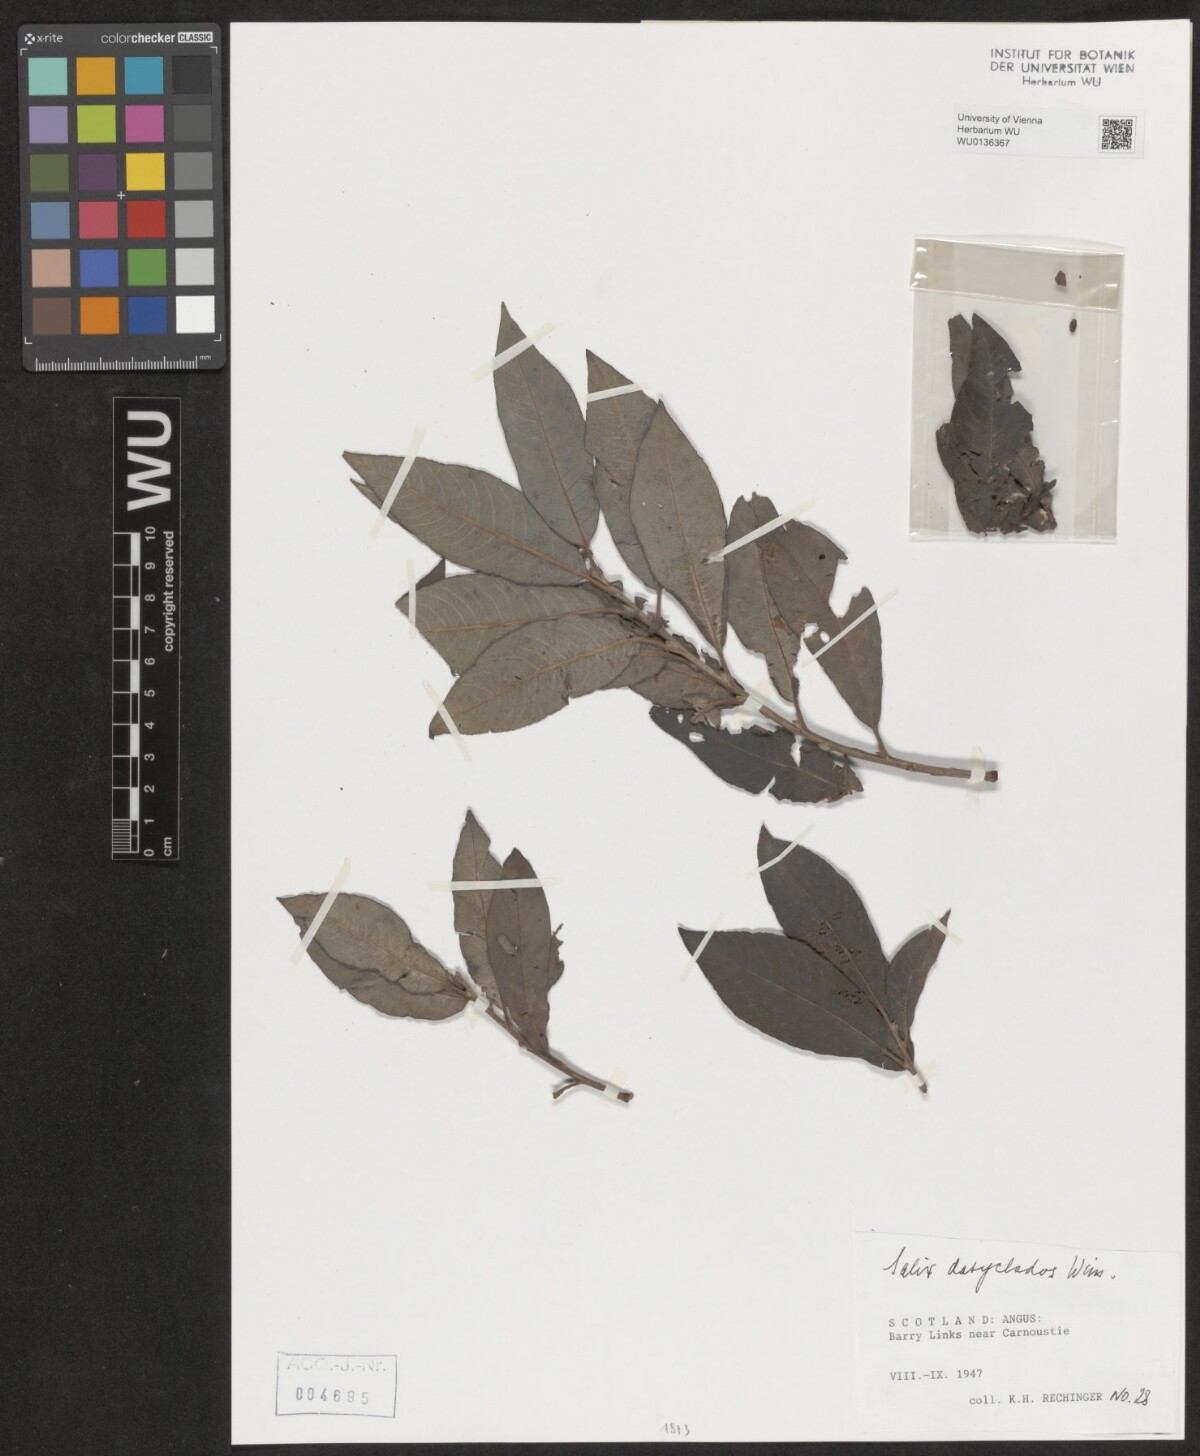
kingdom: Plantae
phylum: Tracheophyta
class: Magnoliopsida
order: Malpighiales
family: Salicaceae
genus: Salix
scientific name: Salix gmelinii
